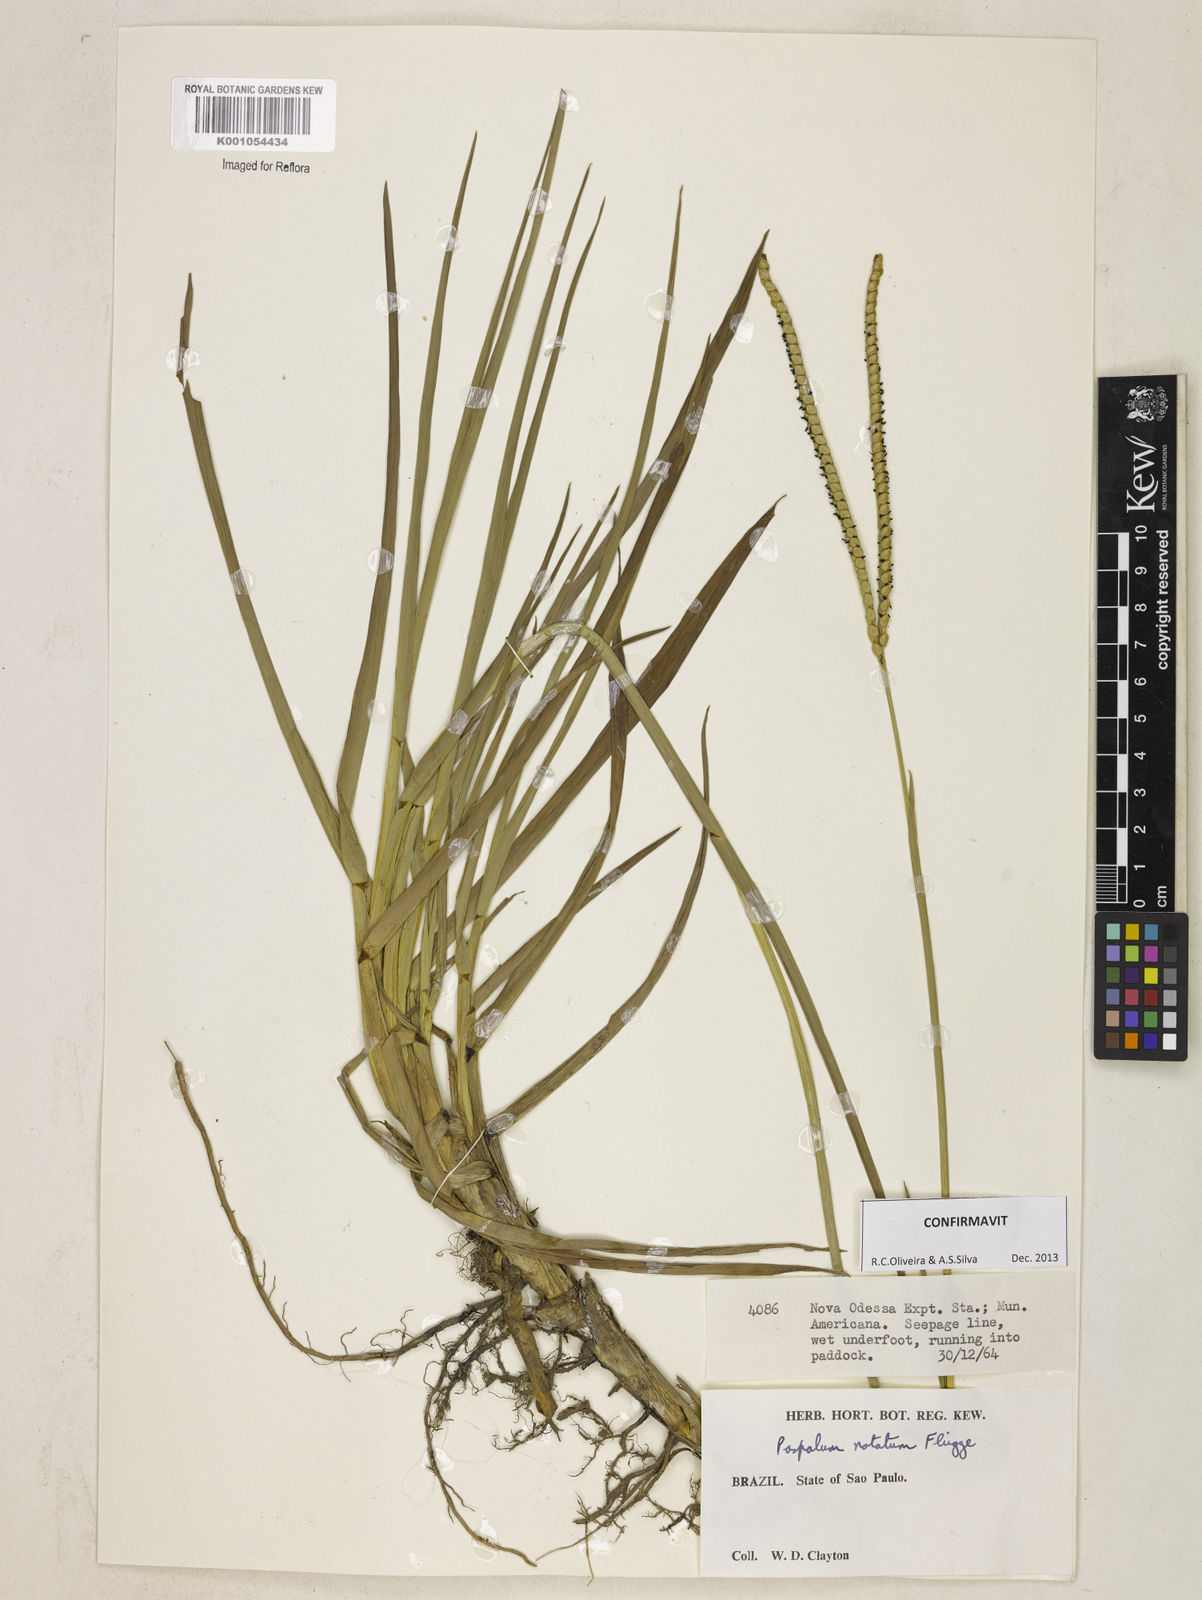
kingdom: Plantae
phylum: Tracheophyta
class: Liliopsida
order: Poales
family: Poaceae
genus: Paspalum
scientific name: Paspalum
